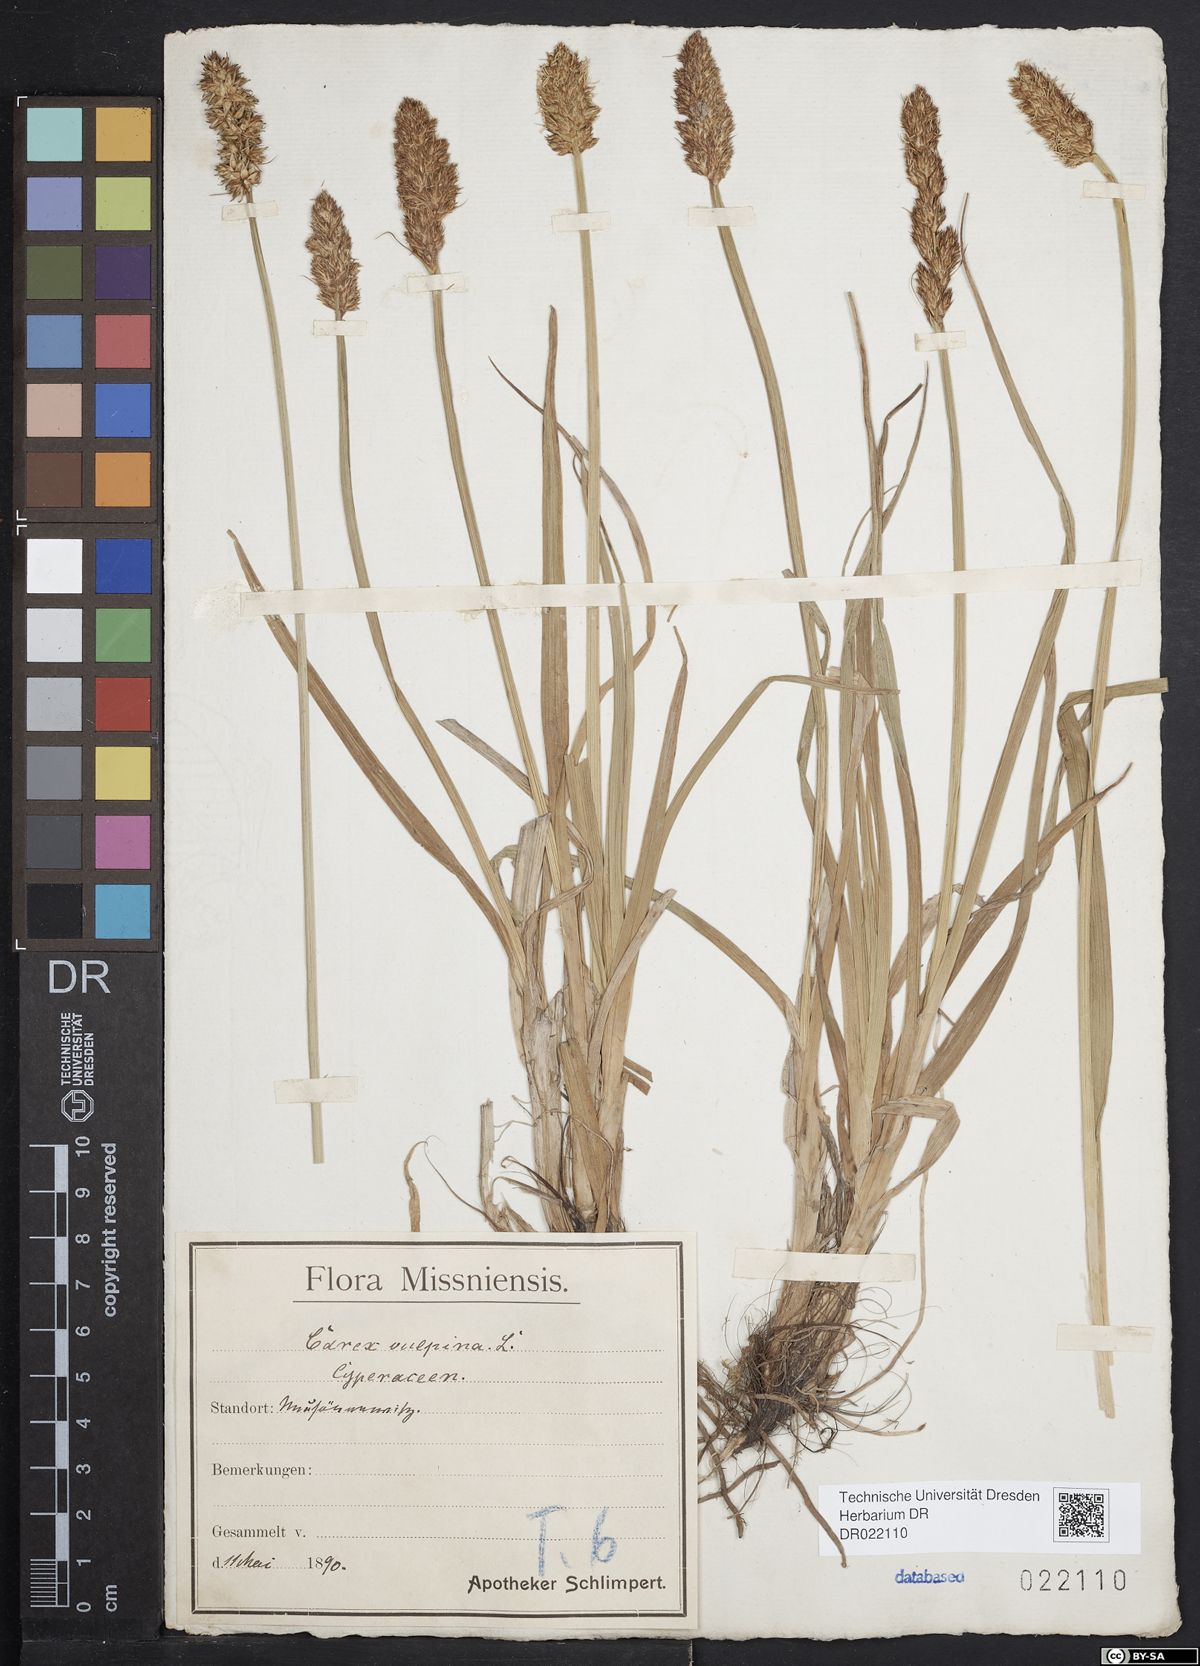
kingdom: Plantae
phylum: Tracheophyta
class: Liliopsida
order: Poales
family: Cyperaceae
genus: Carex
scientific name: Carex vulpina
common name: True fox-sedge
